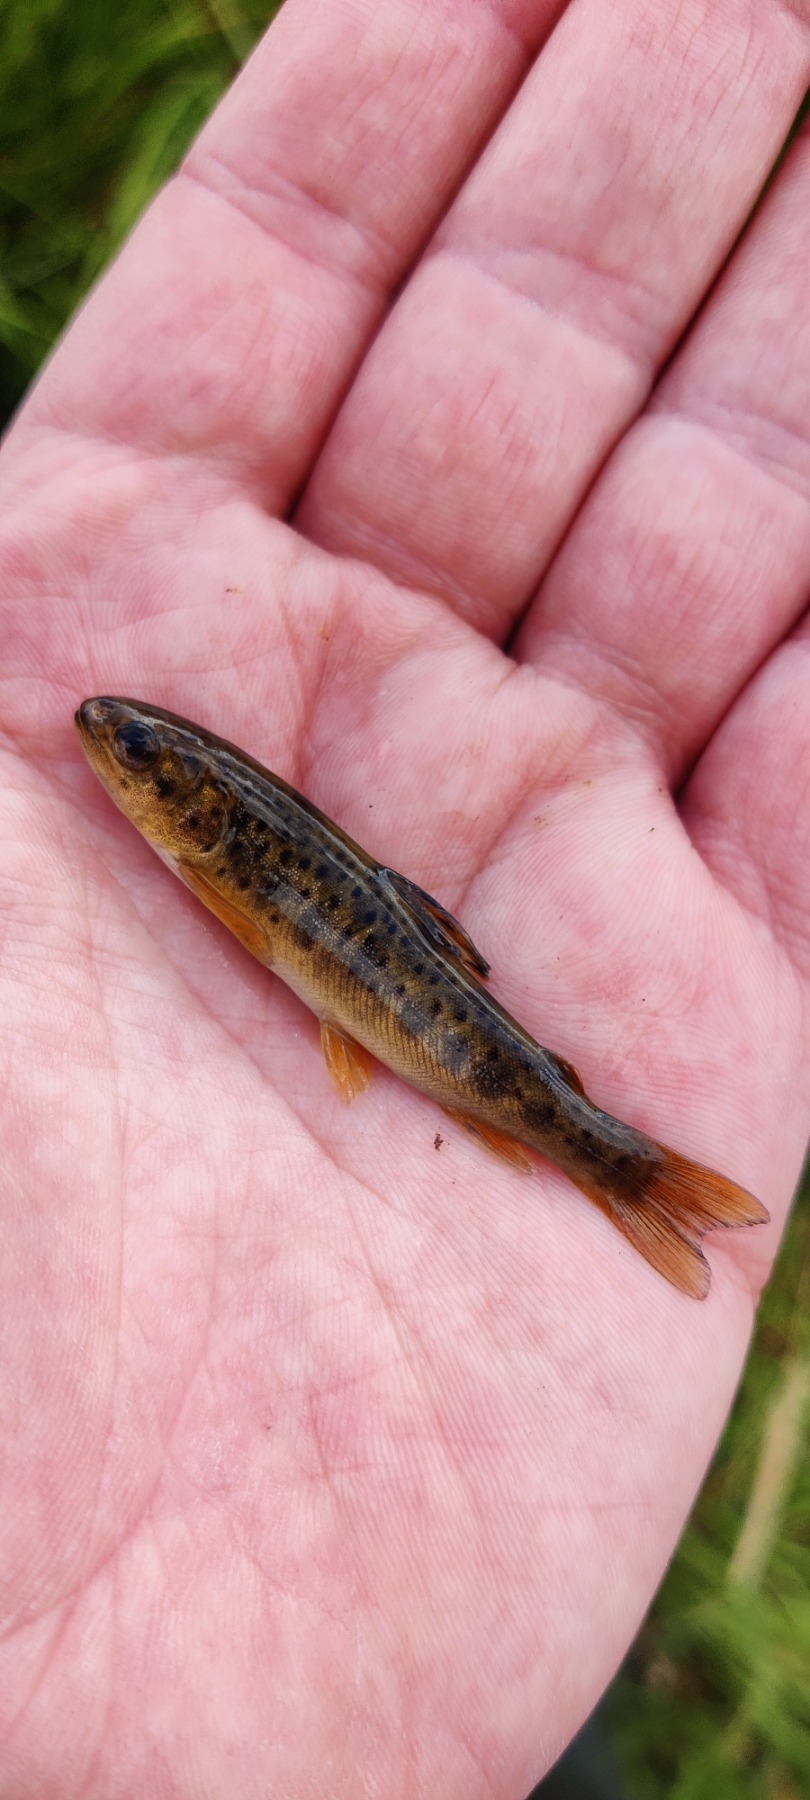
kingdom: Animalia
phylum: Chordata
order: Salmoniformes
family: Salmonidae
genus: Salmo
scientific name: Salmo trutta
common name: Ørred
